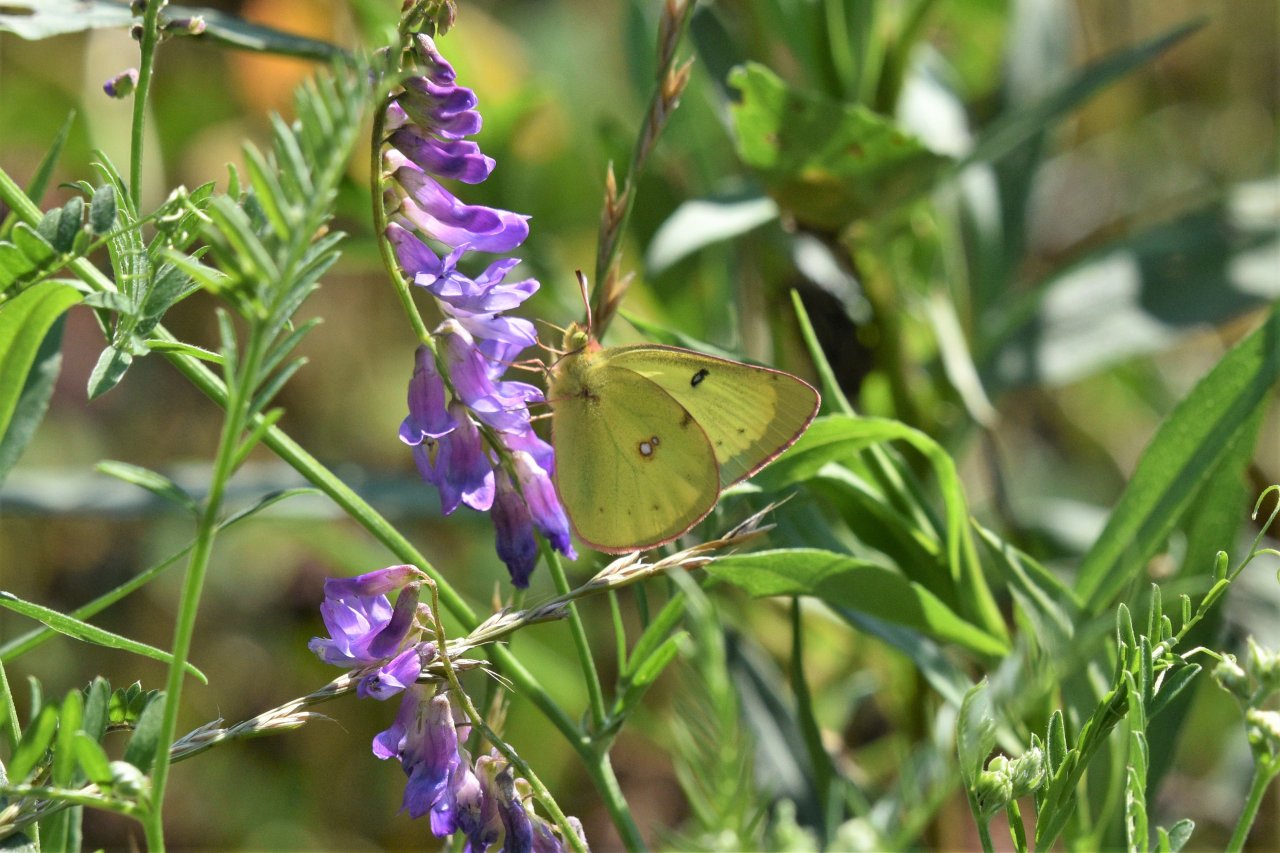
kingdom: Animalia
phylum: Arthropoda
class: Insecta
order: Lepidoptera
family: Pieridae
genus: Colias
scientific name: Colias philodice
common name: Clouded Sulphur
